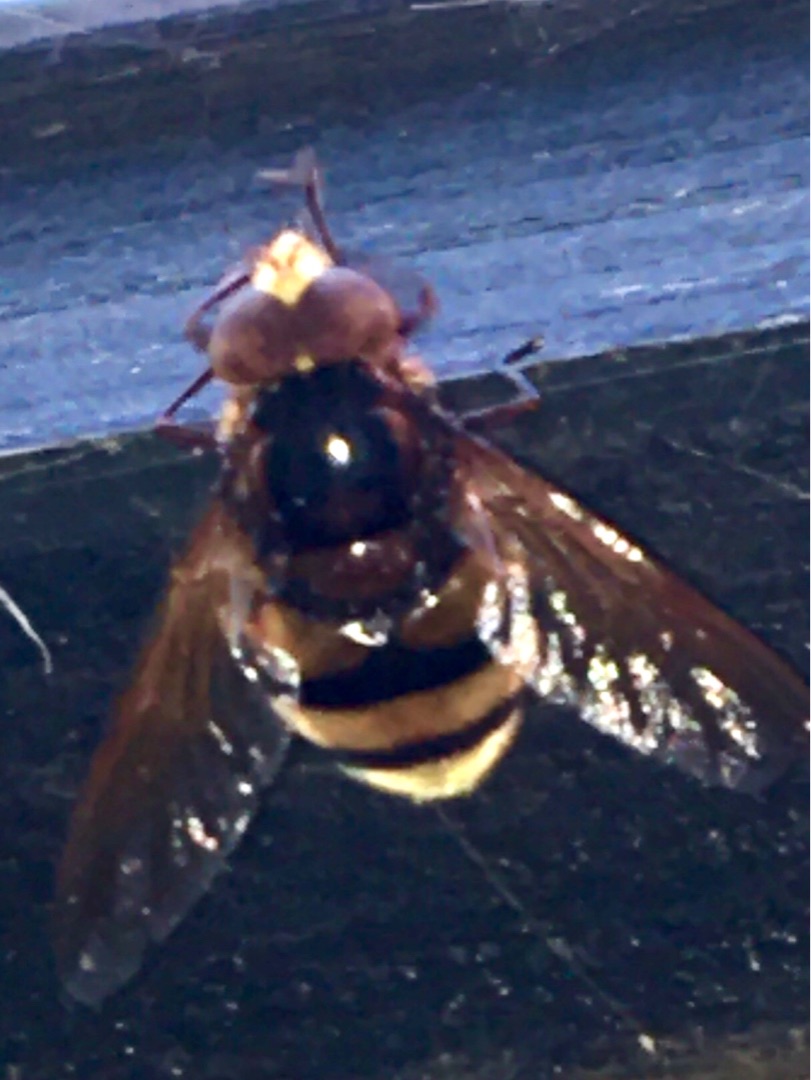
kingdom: Animalia
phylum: Arthropoda
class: Insecta
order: Diptera
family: Syrphidae
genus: Volucella
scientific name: Volucella zonaria
